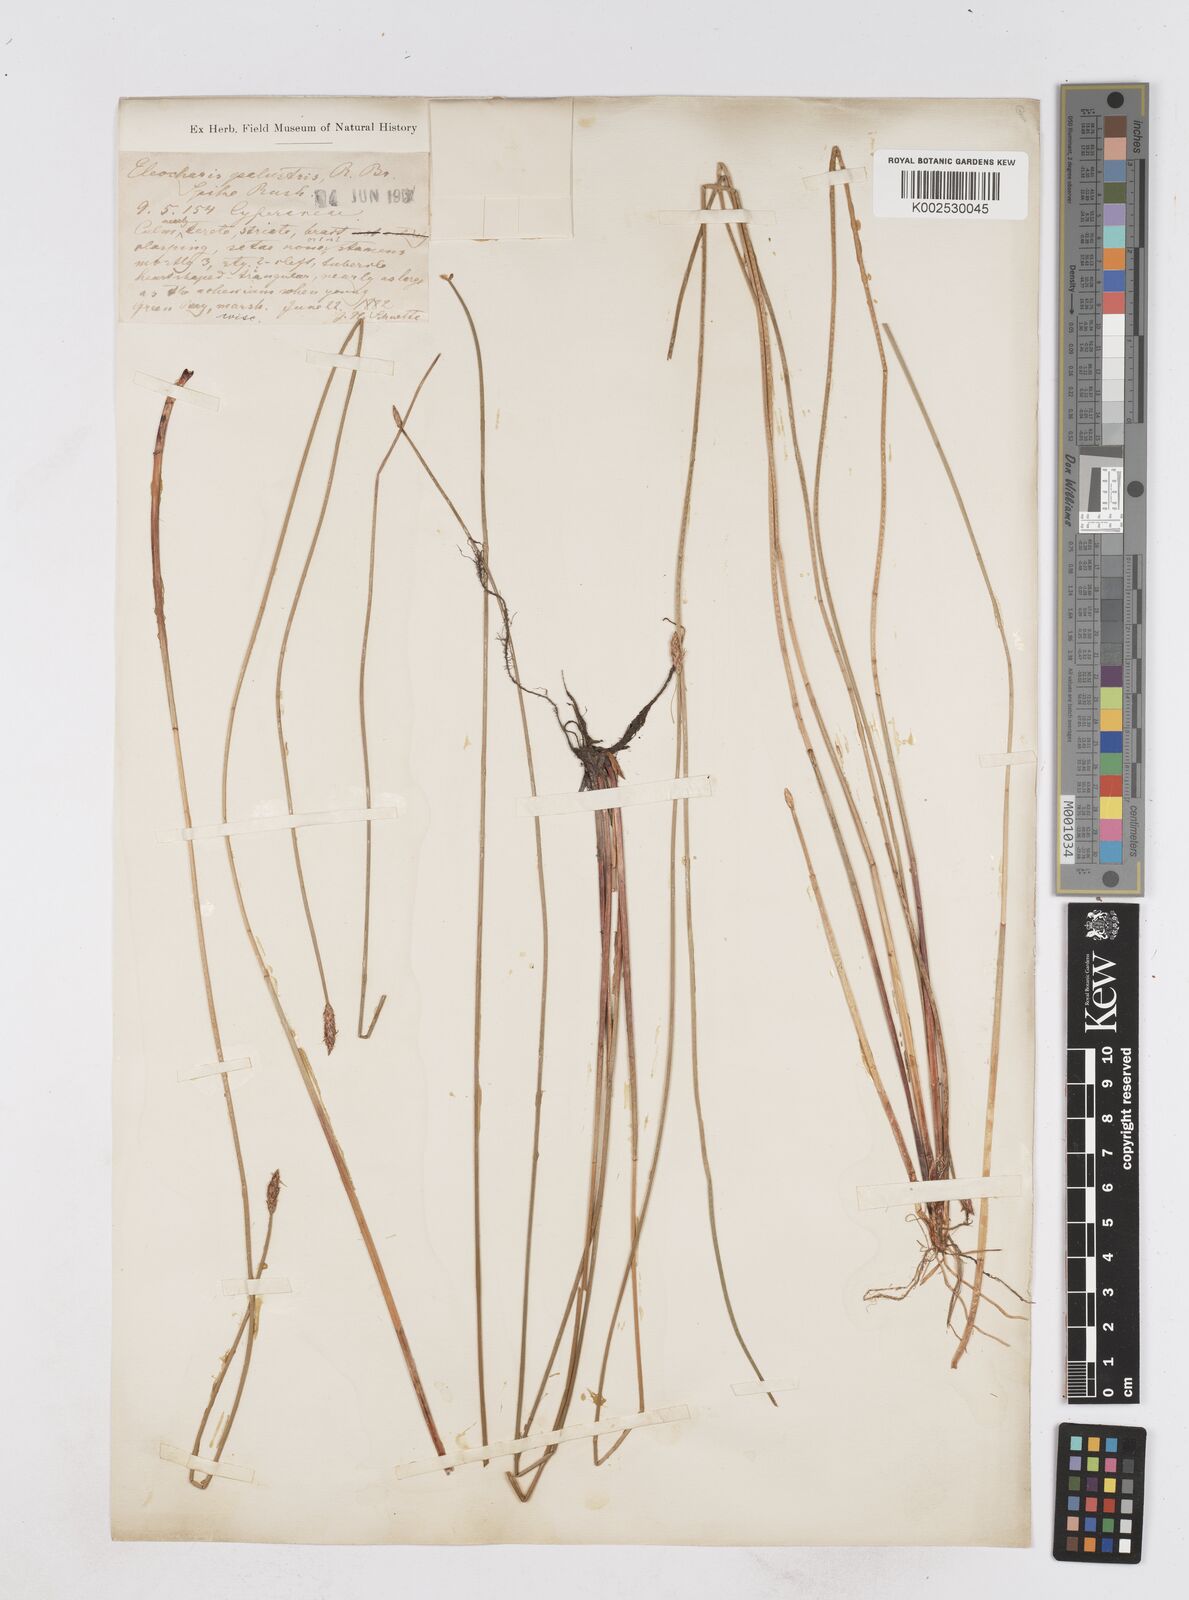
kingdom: Plantae
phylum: Tracheophyta
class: Liliopsida
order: Poales
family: Cyperaceae
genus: Eleocharis
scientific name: Eleocharis palustris
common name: Common spike-rush
